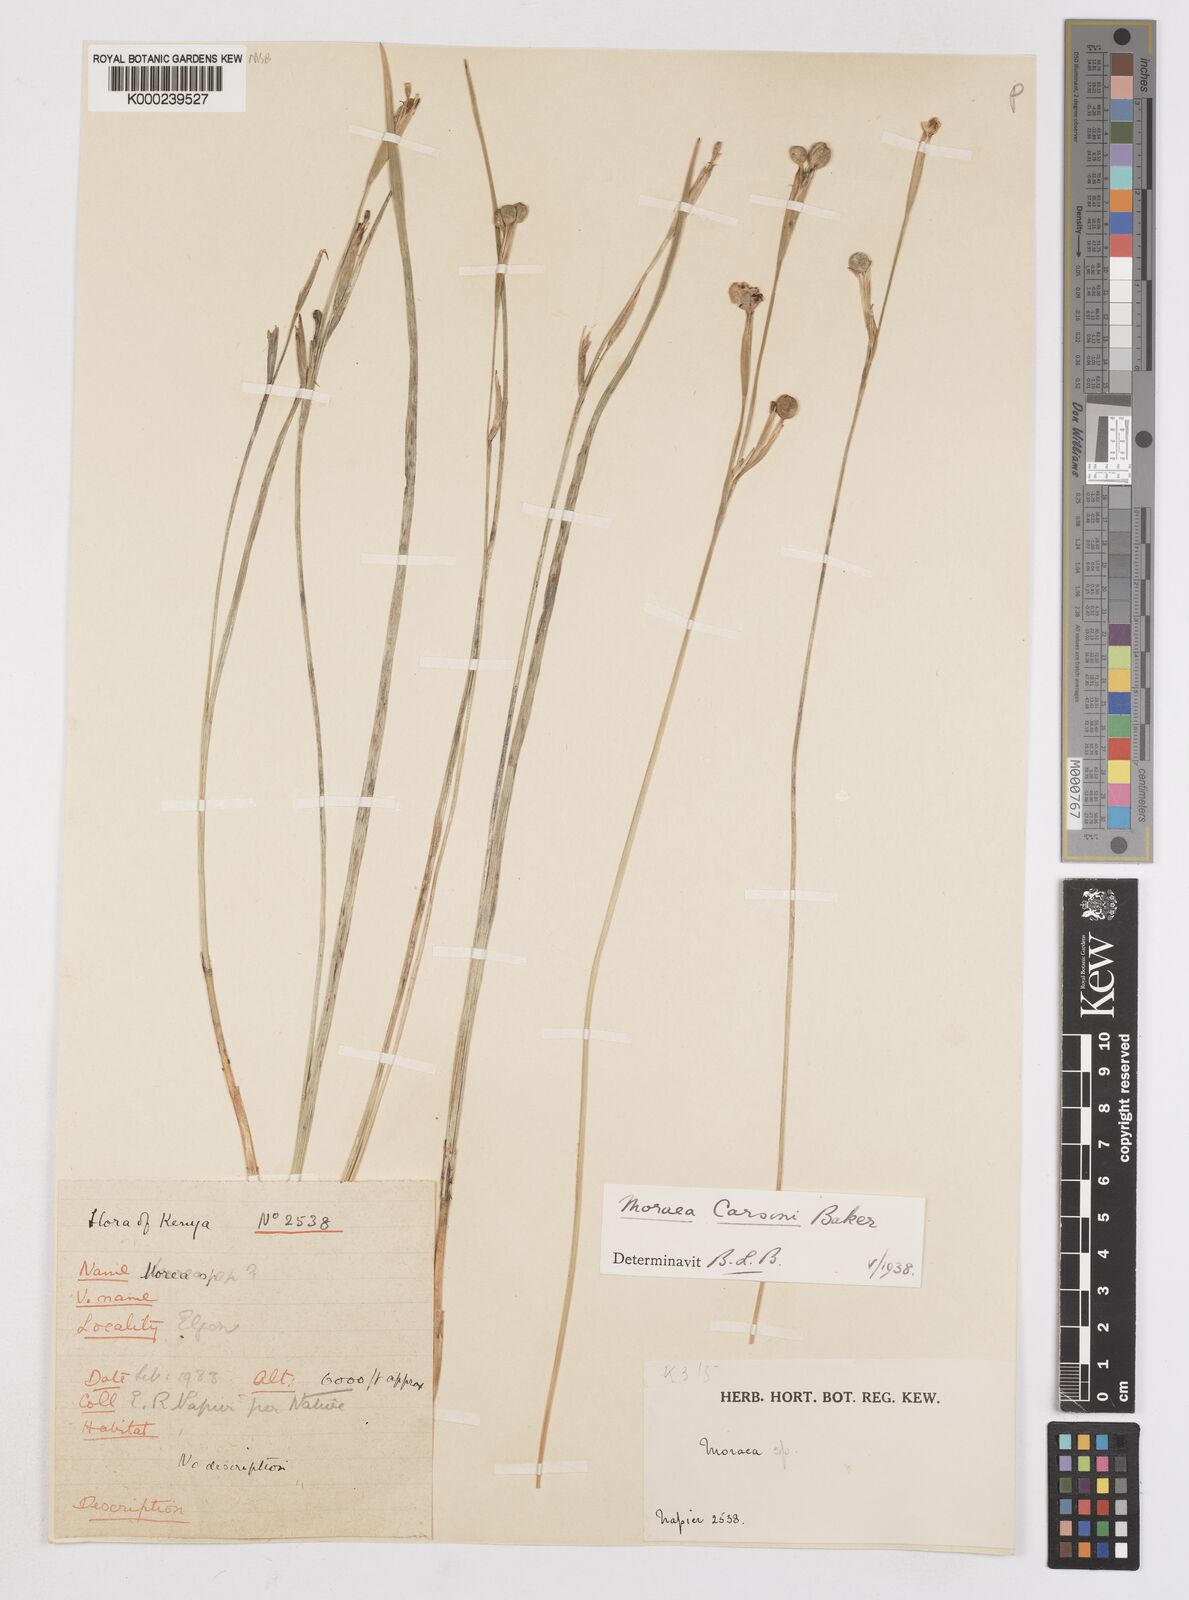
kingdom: Plantae
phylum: Tracheophyta
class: Liliopsida
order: Asparagales
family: Iridaceae
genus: Moraea
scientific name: Moraea
